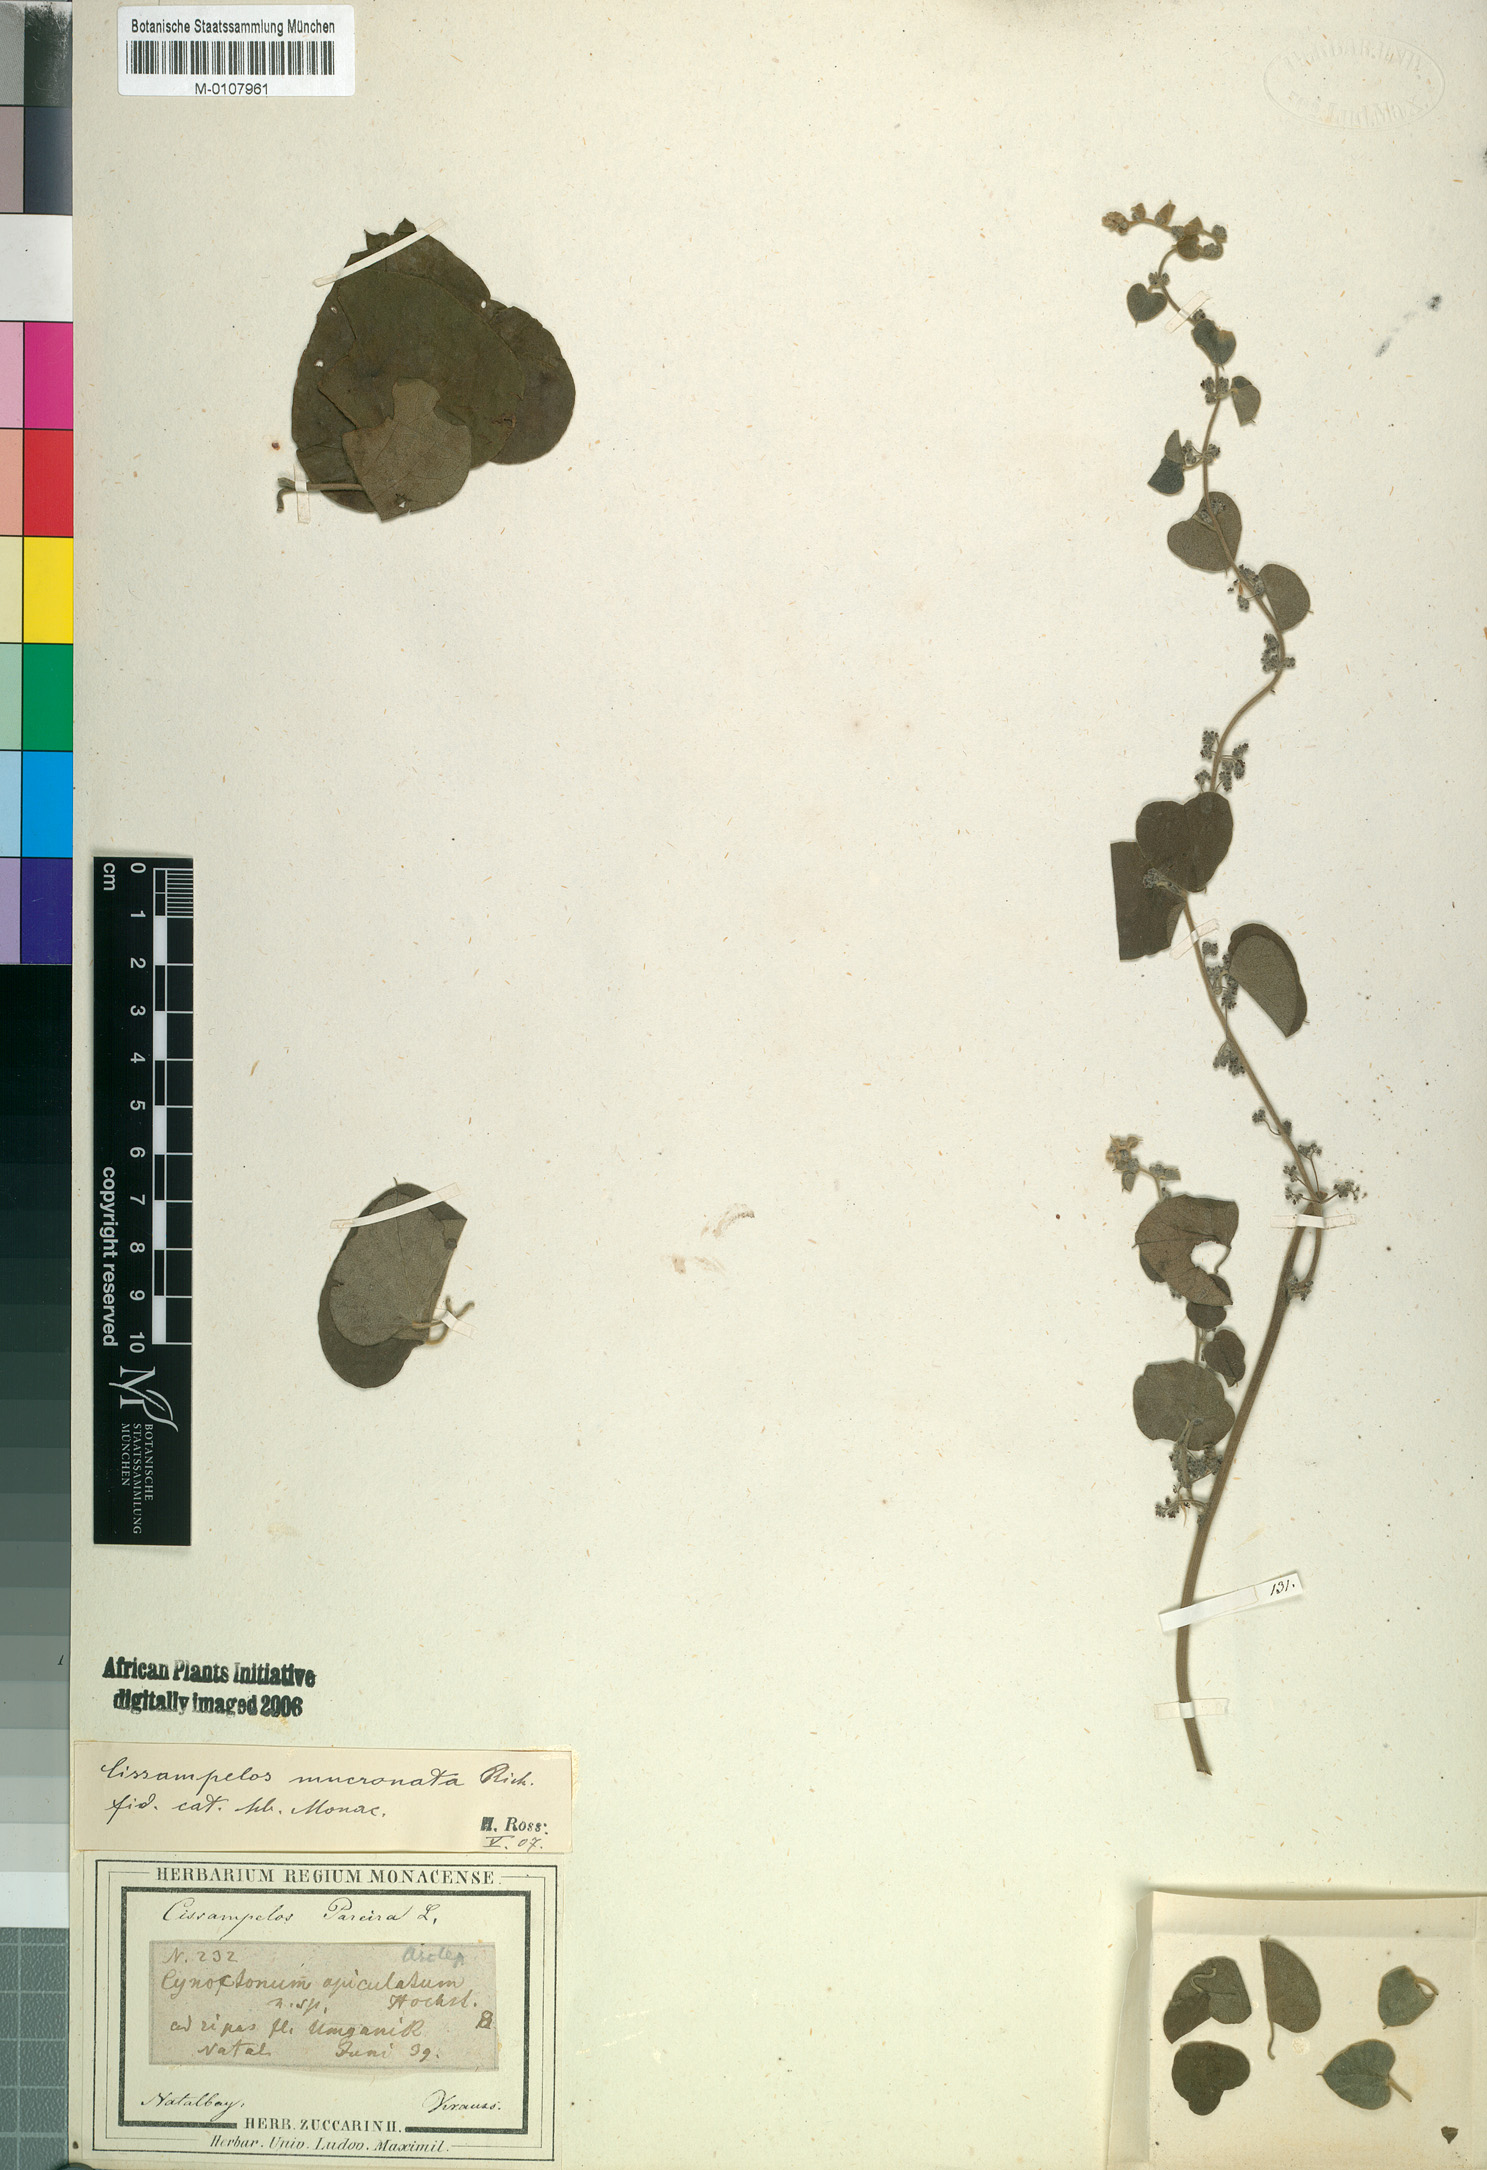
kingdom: Plantae
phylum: Tracheophyta
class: Magnoliopsida
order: Ranunculales
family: Menispermaceae
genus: Cissampelos
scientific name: Cissampelos mucronata
